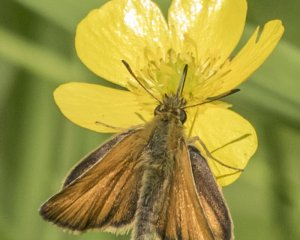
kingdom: Animalia
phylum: Arthropoda
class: Insecta
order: Lepidoptera
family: Hesperiidae
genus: Thymelicus
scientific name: Thymelicus lineola
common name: European Skipper
